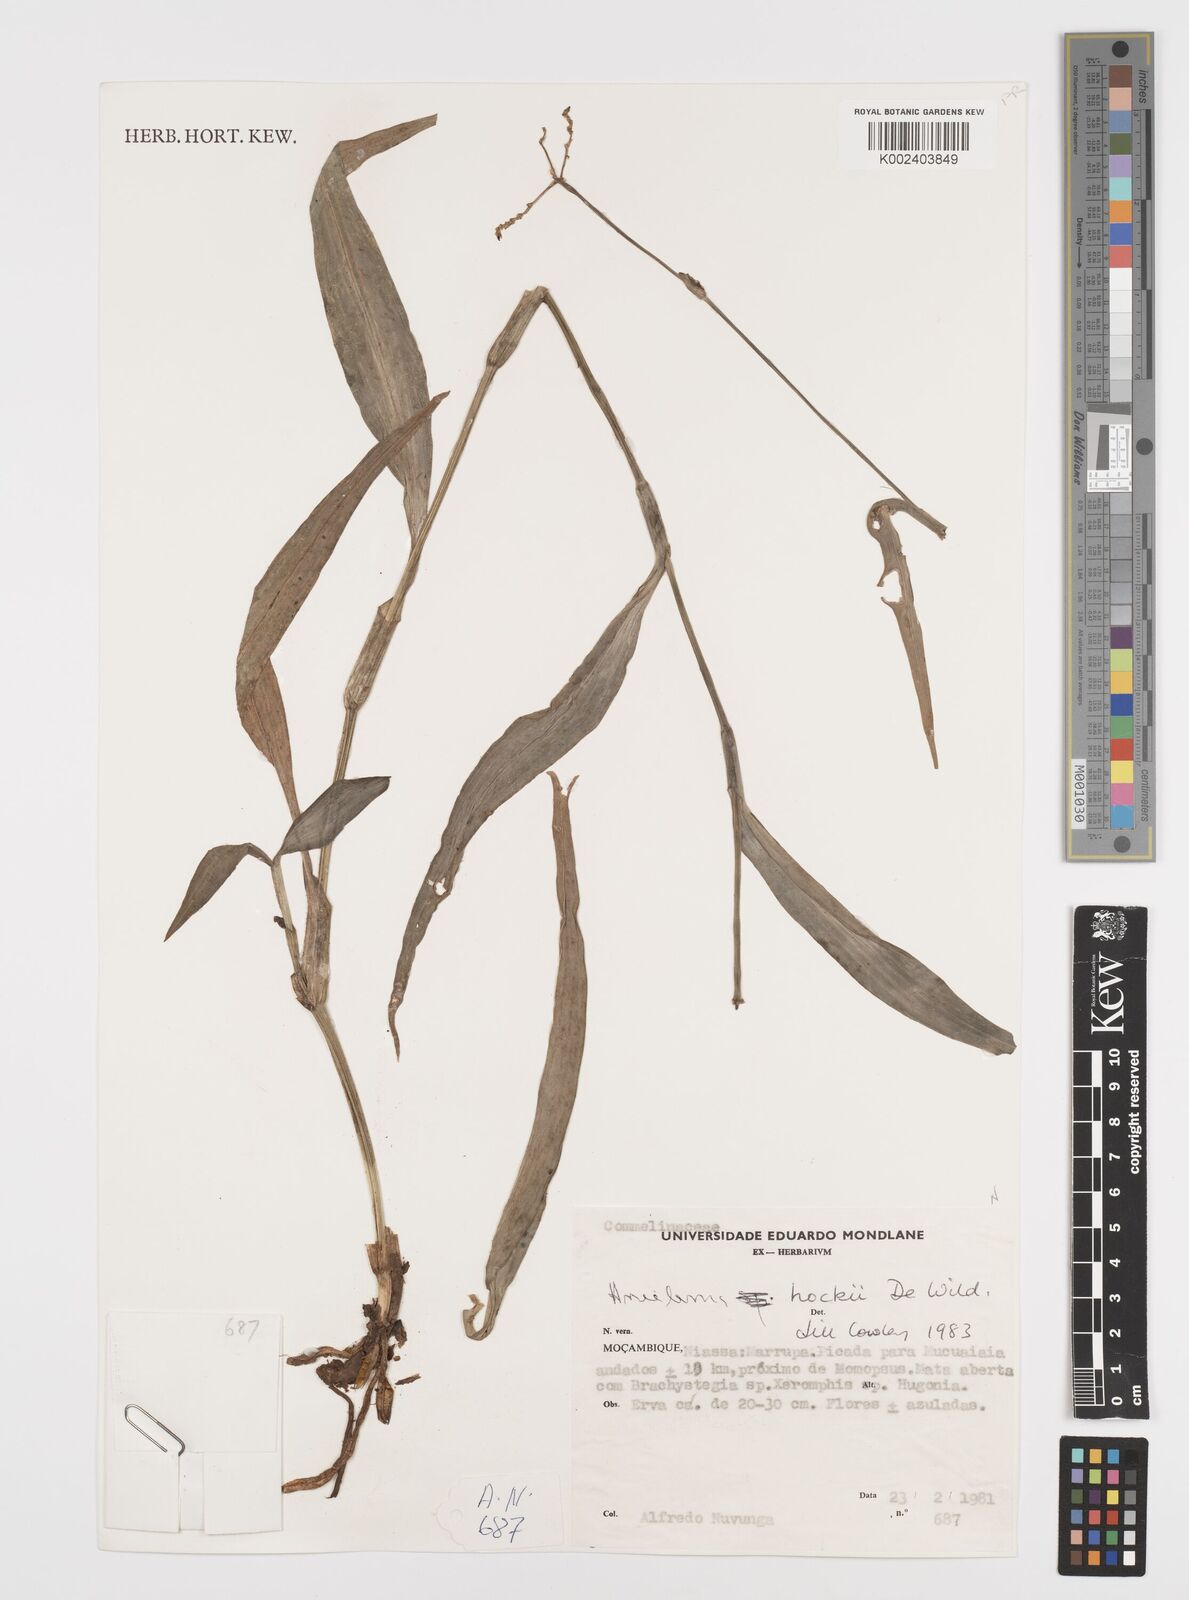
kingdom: Plantae
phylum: Tracheophyta
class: Liliopsida
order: Commelinales
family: Commelinaceae
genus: Aneilema
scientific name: Aneilema hockii
